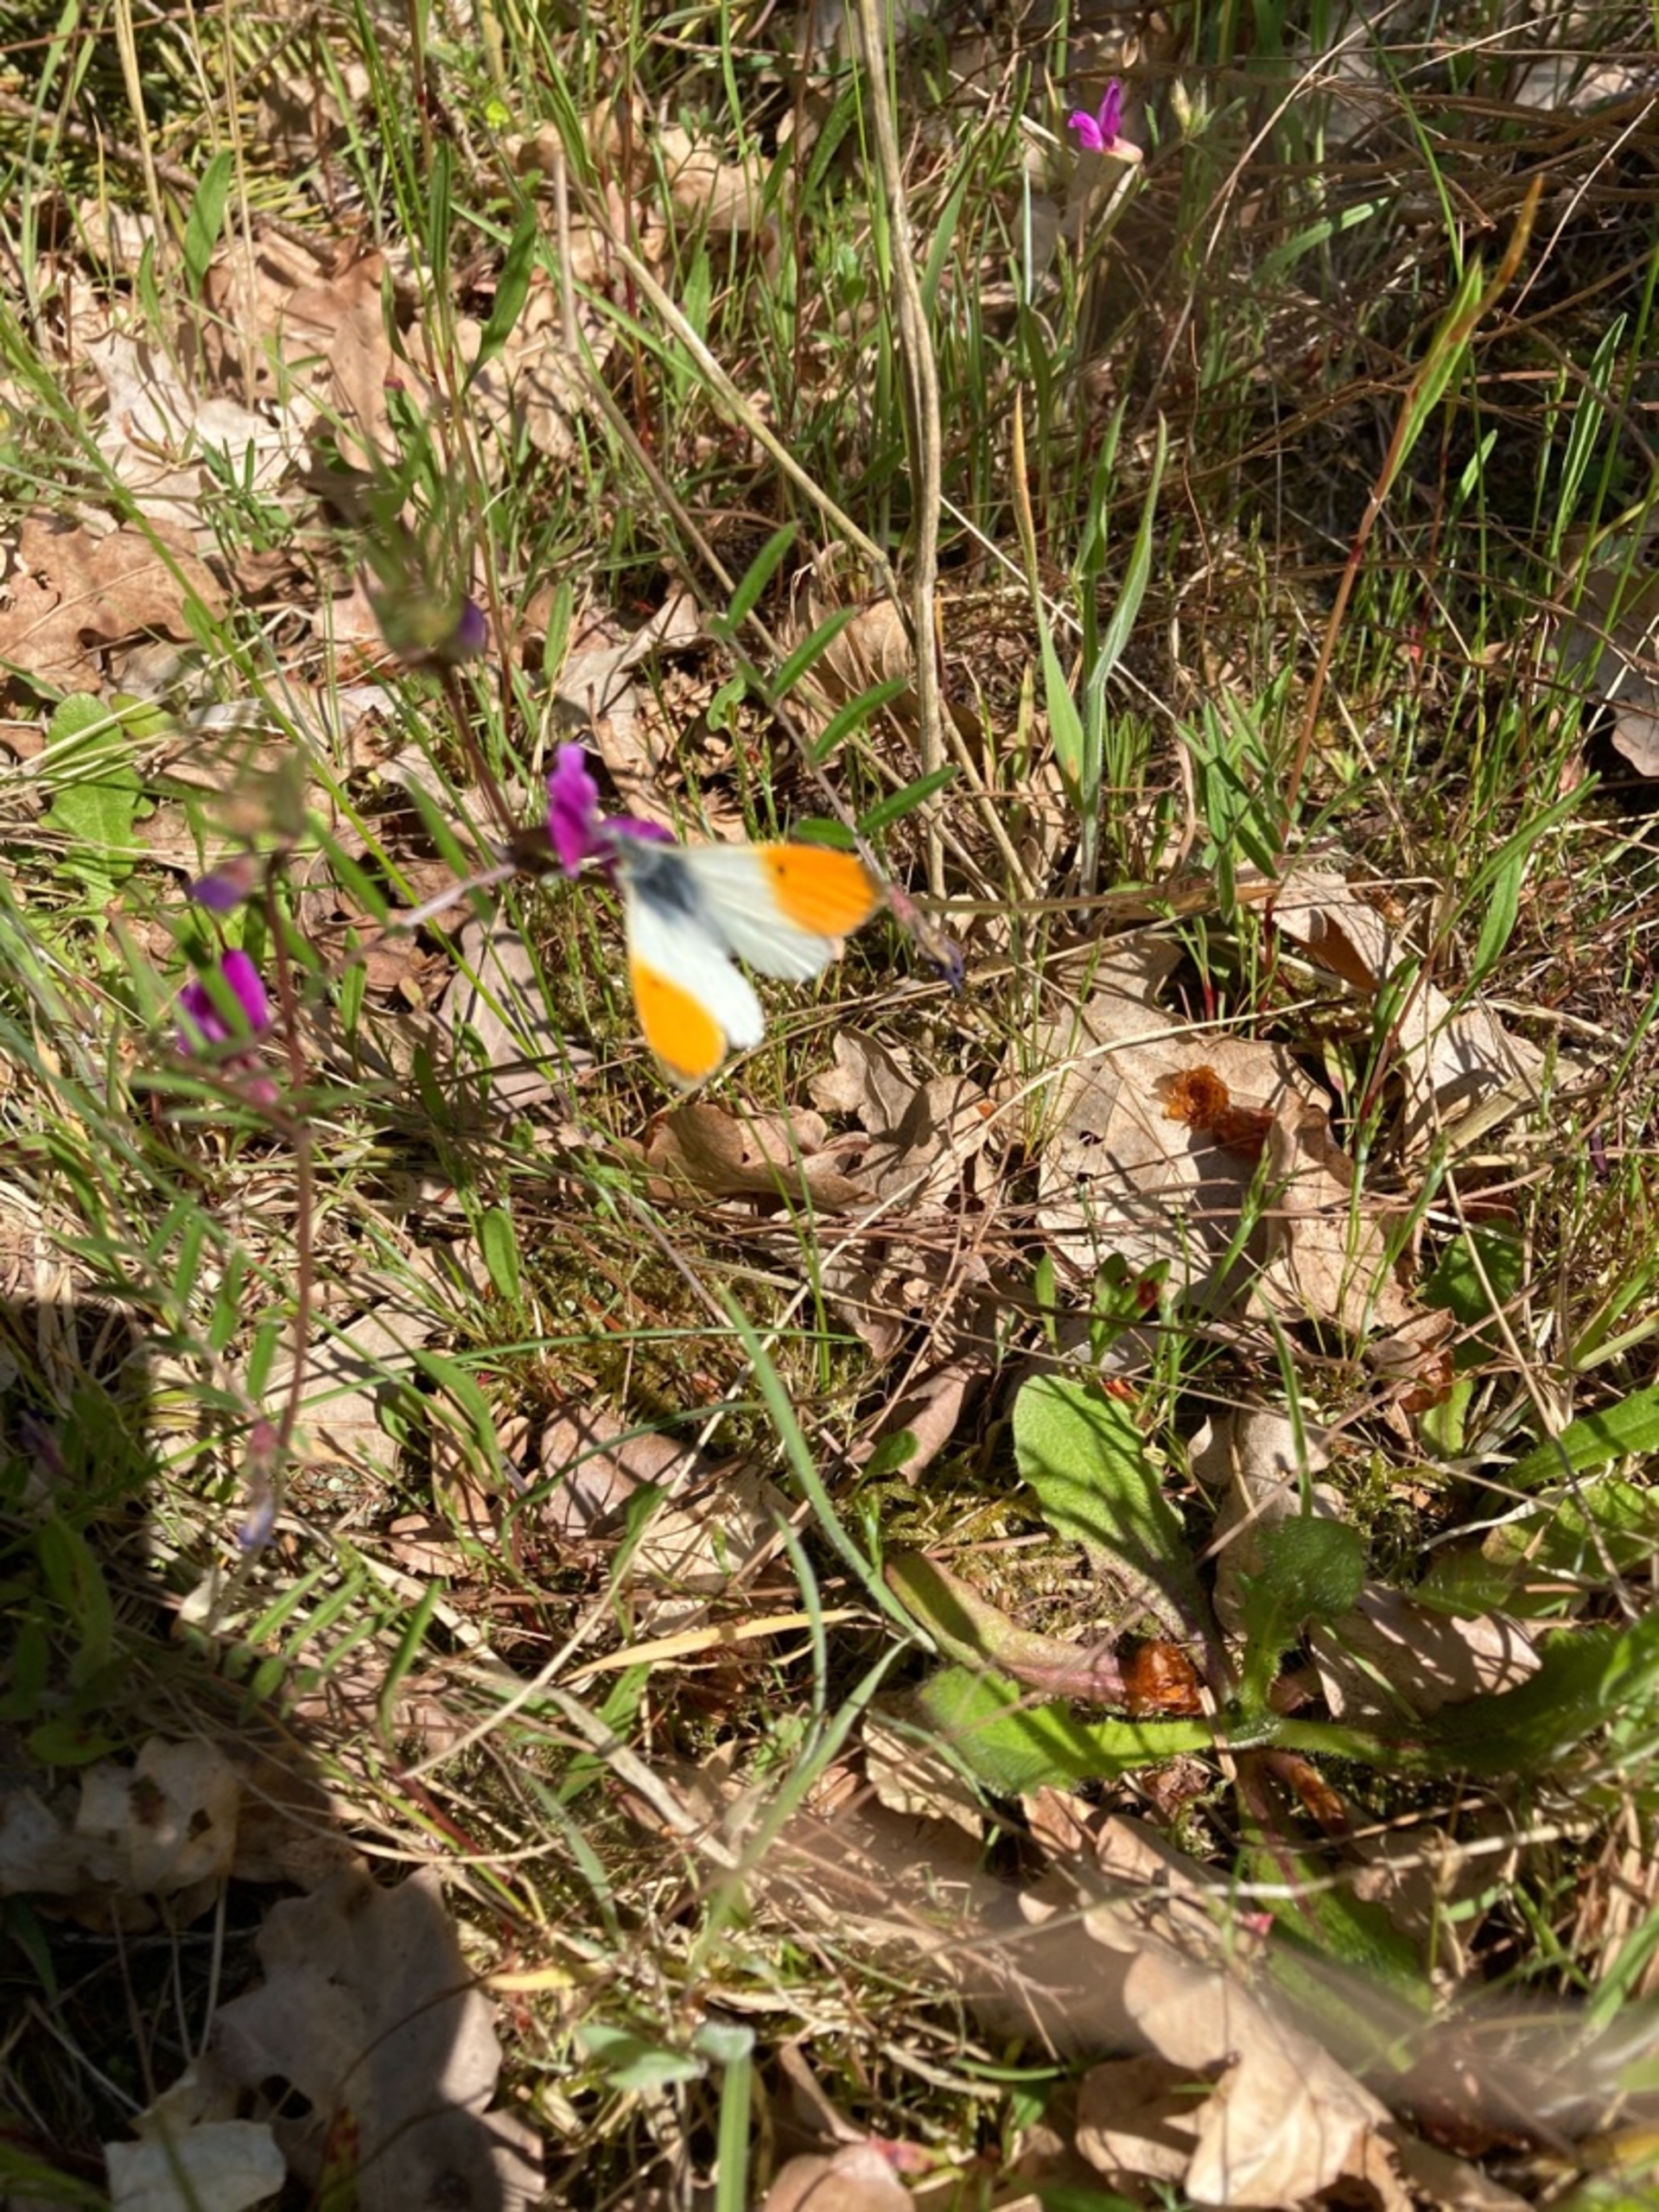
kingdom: Animalia
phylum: Arthropoda
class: Insecta
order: Lepidoptera
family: Pieridae
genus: Anthocharis
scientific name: Anthocharis cardamines
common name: Aurora
